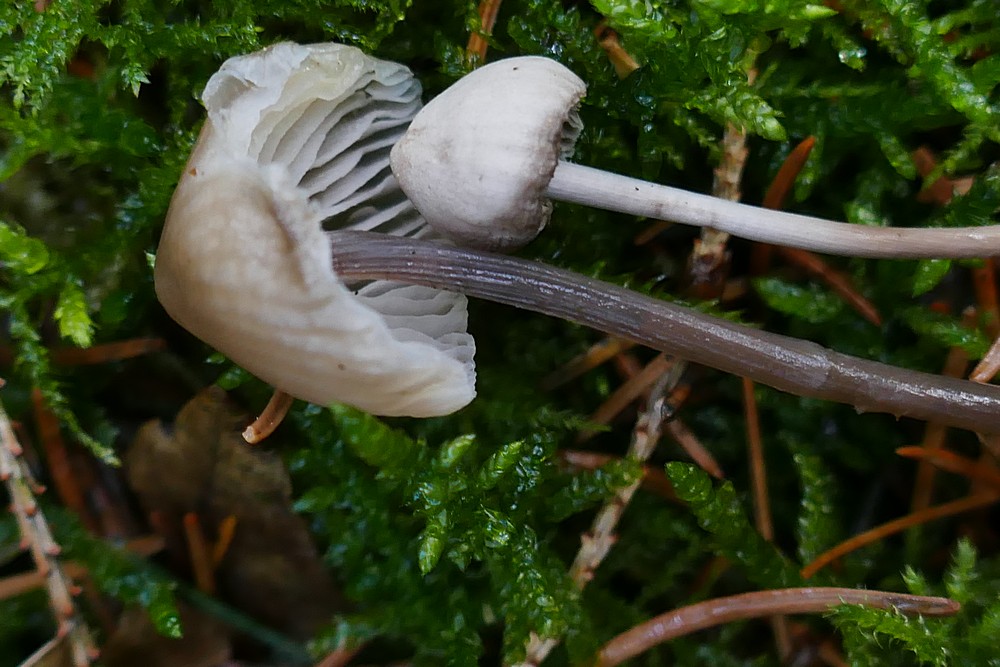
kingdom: Fungi
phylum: Basidiomycota
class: Agaricomycetes
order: Agaricales
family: Mycenaceae
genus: Mycena
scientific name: Mycena
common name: huesvamp
